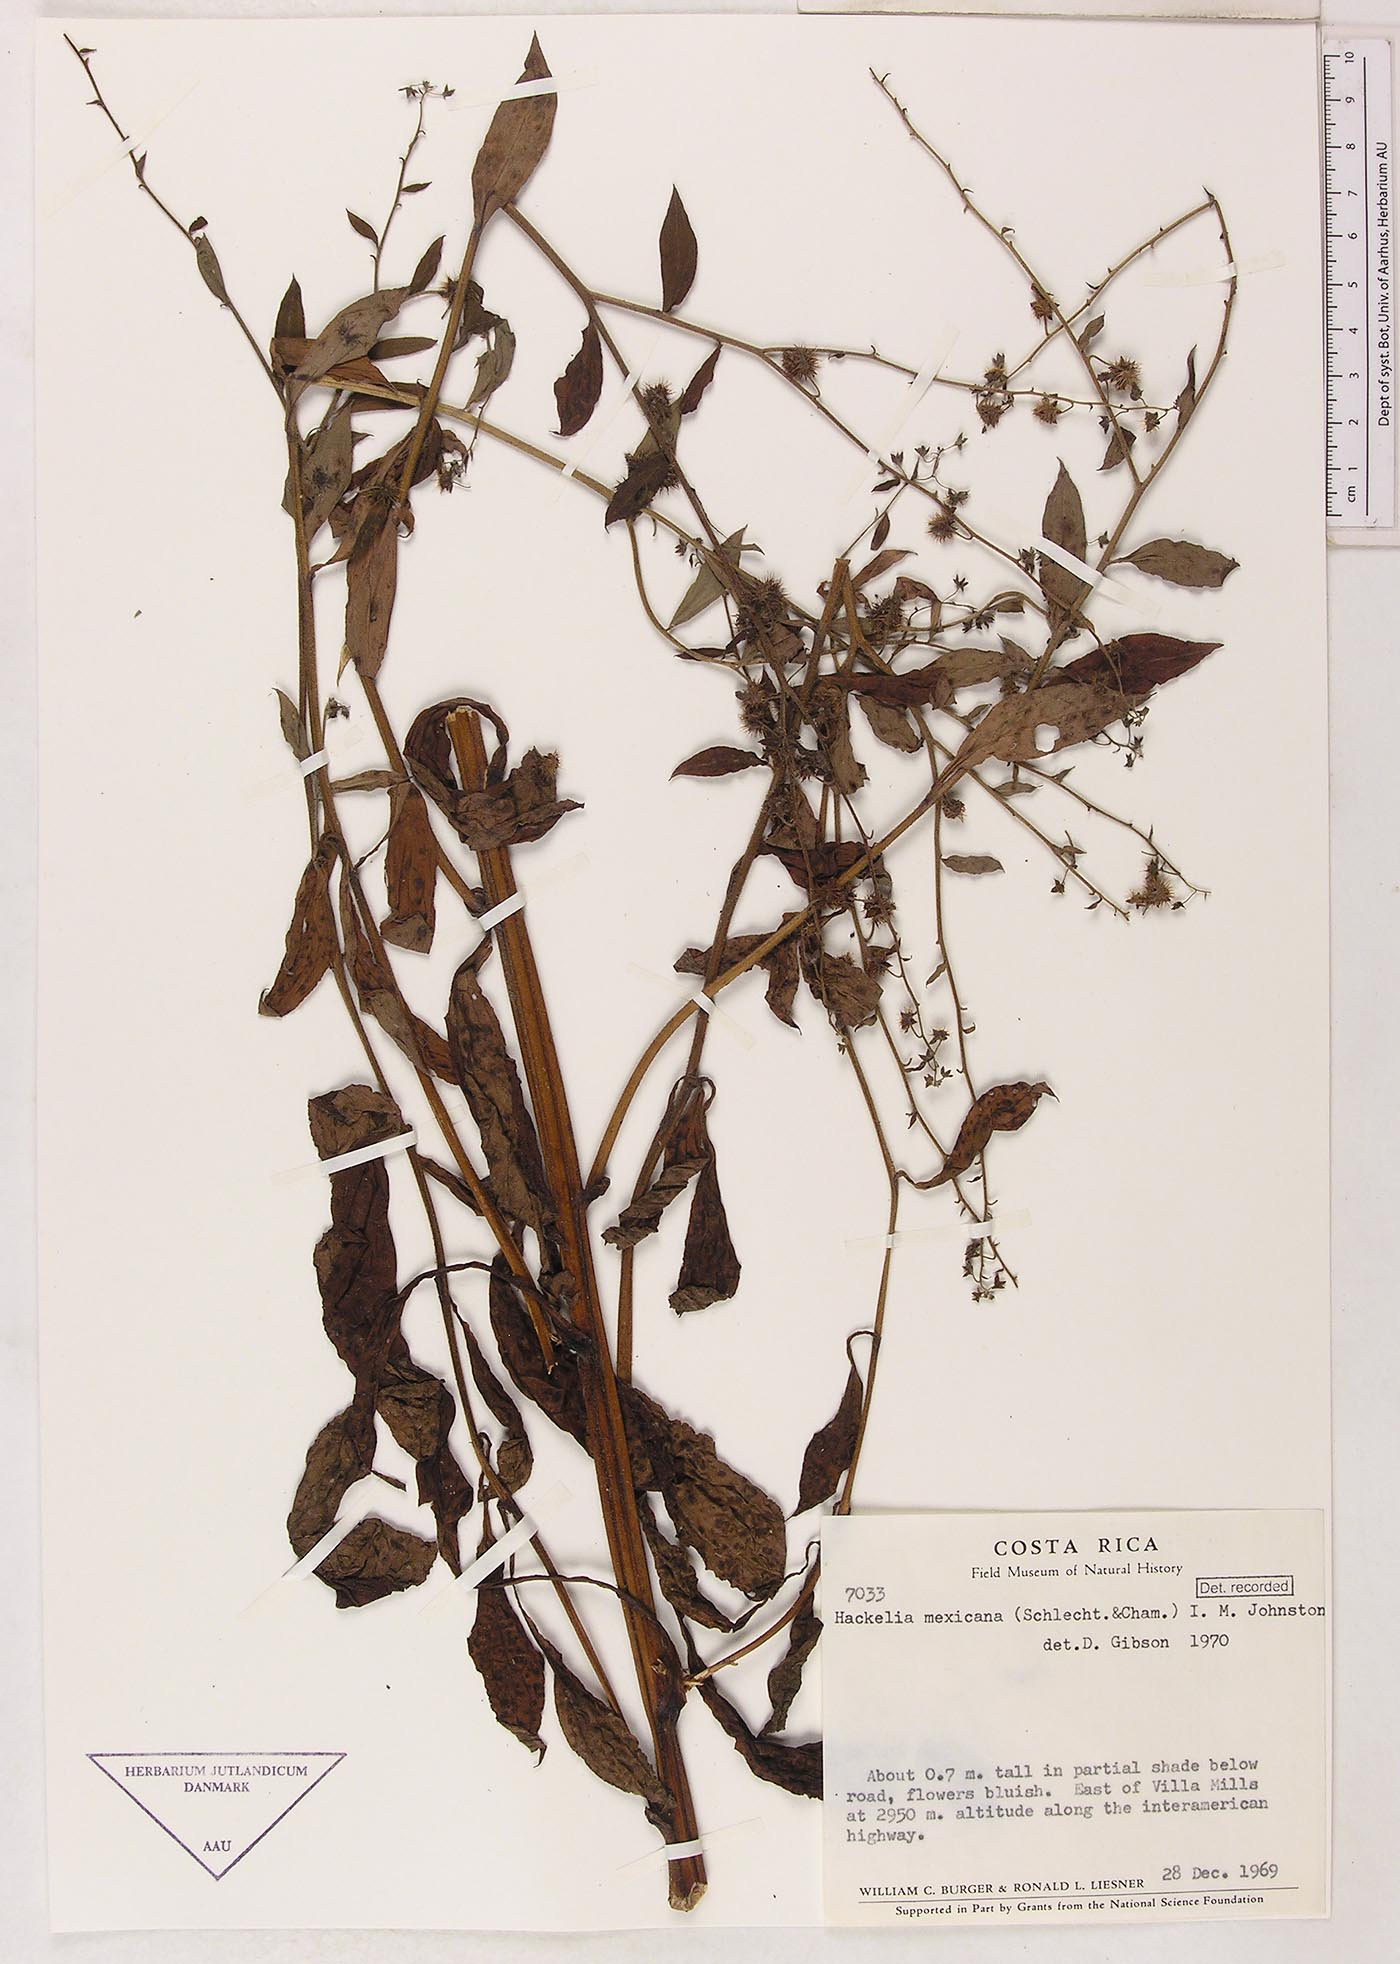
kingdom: Plantae
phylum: Tracheophyta
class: Magnoliopsida
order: Boraginales
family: Boraginaceae
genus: Hackelia
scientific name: Hackelia revoluta
